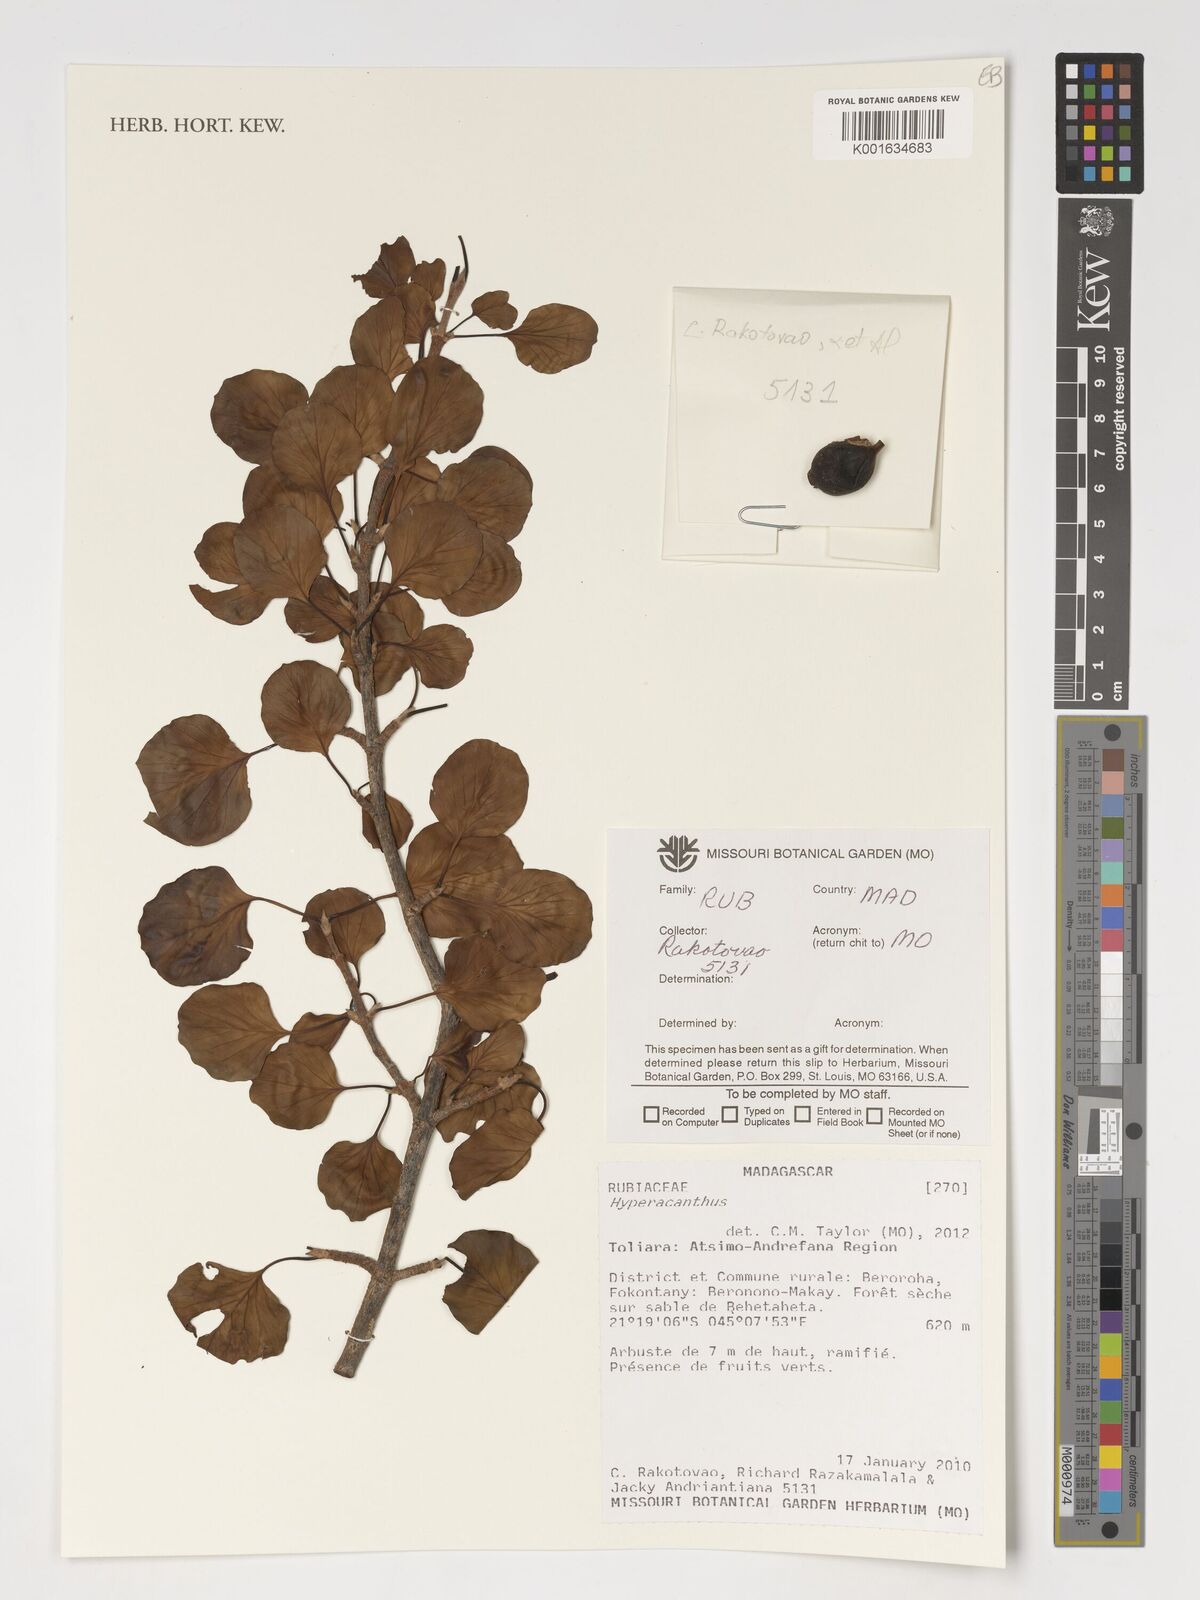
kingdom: Plantae
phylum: Tracheophyta
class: Magnoliopsida
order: Gentianales
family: Rubiaceae
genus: Hyperacanthus
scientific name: Hyperacanthus
